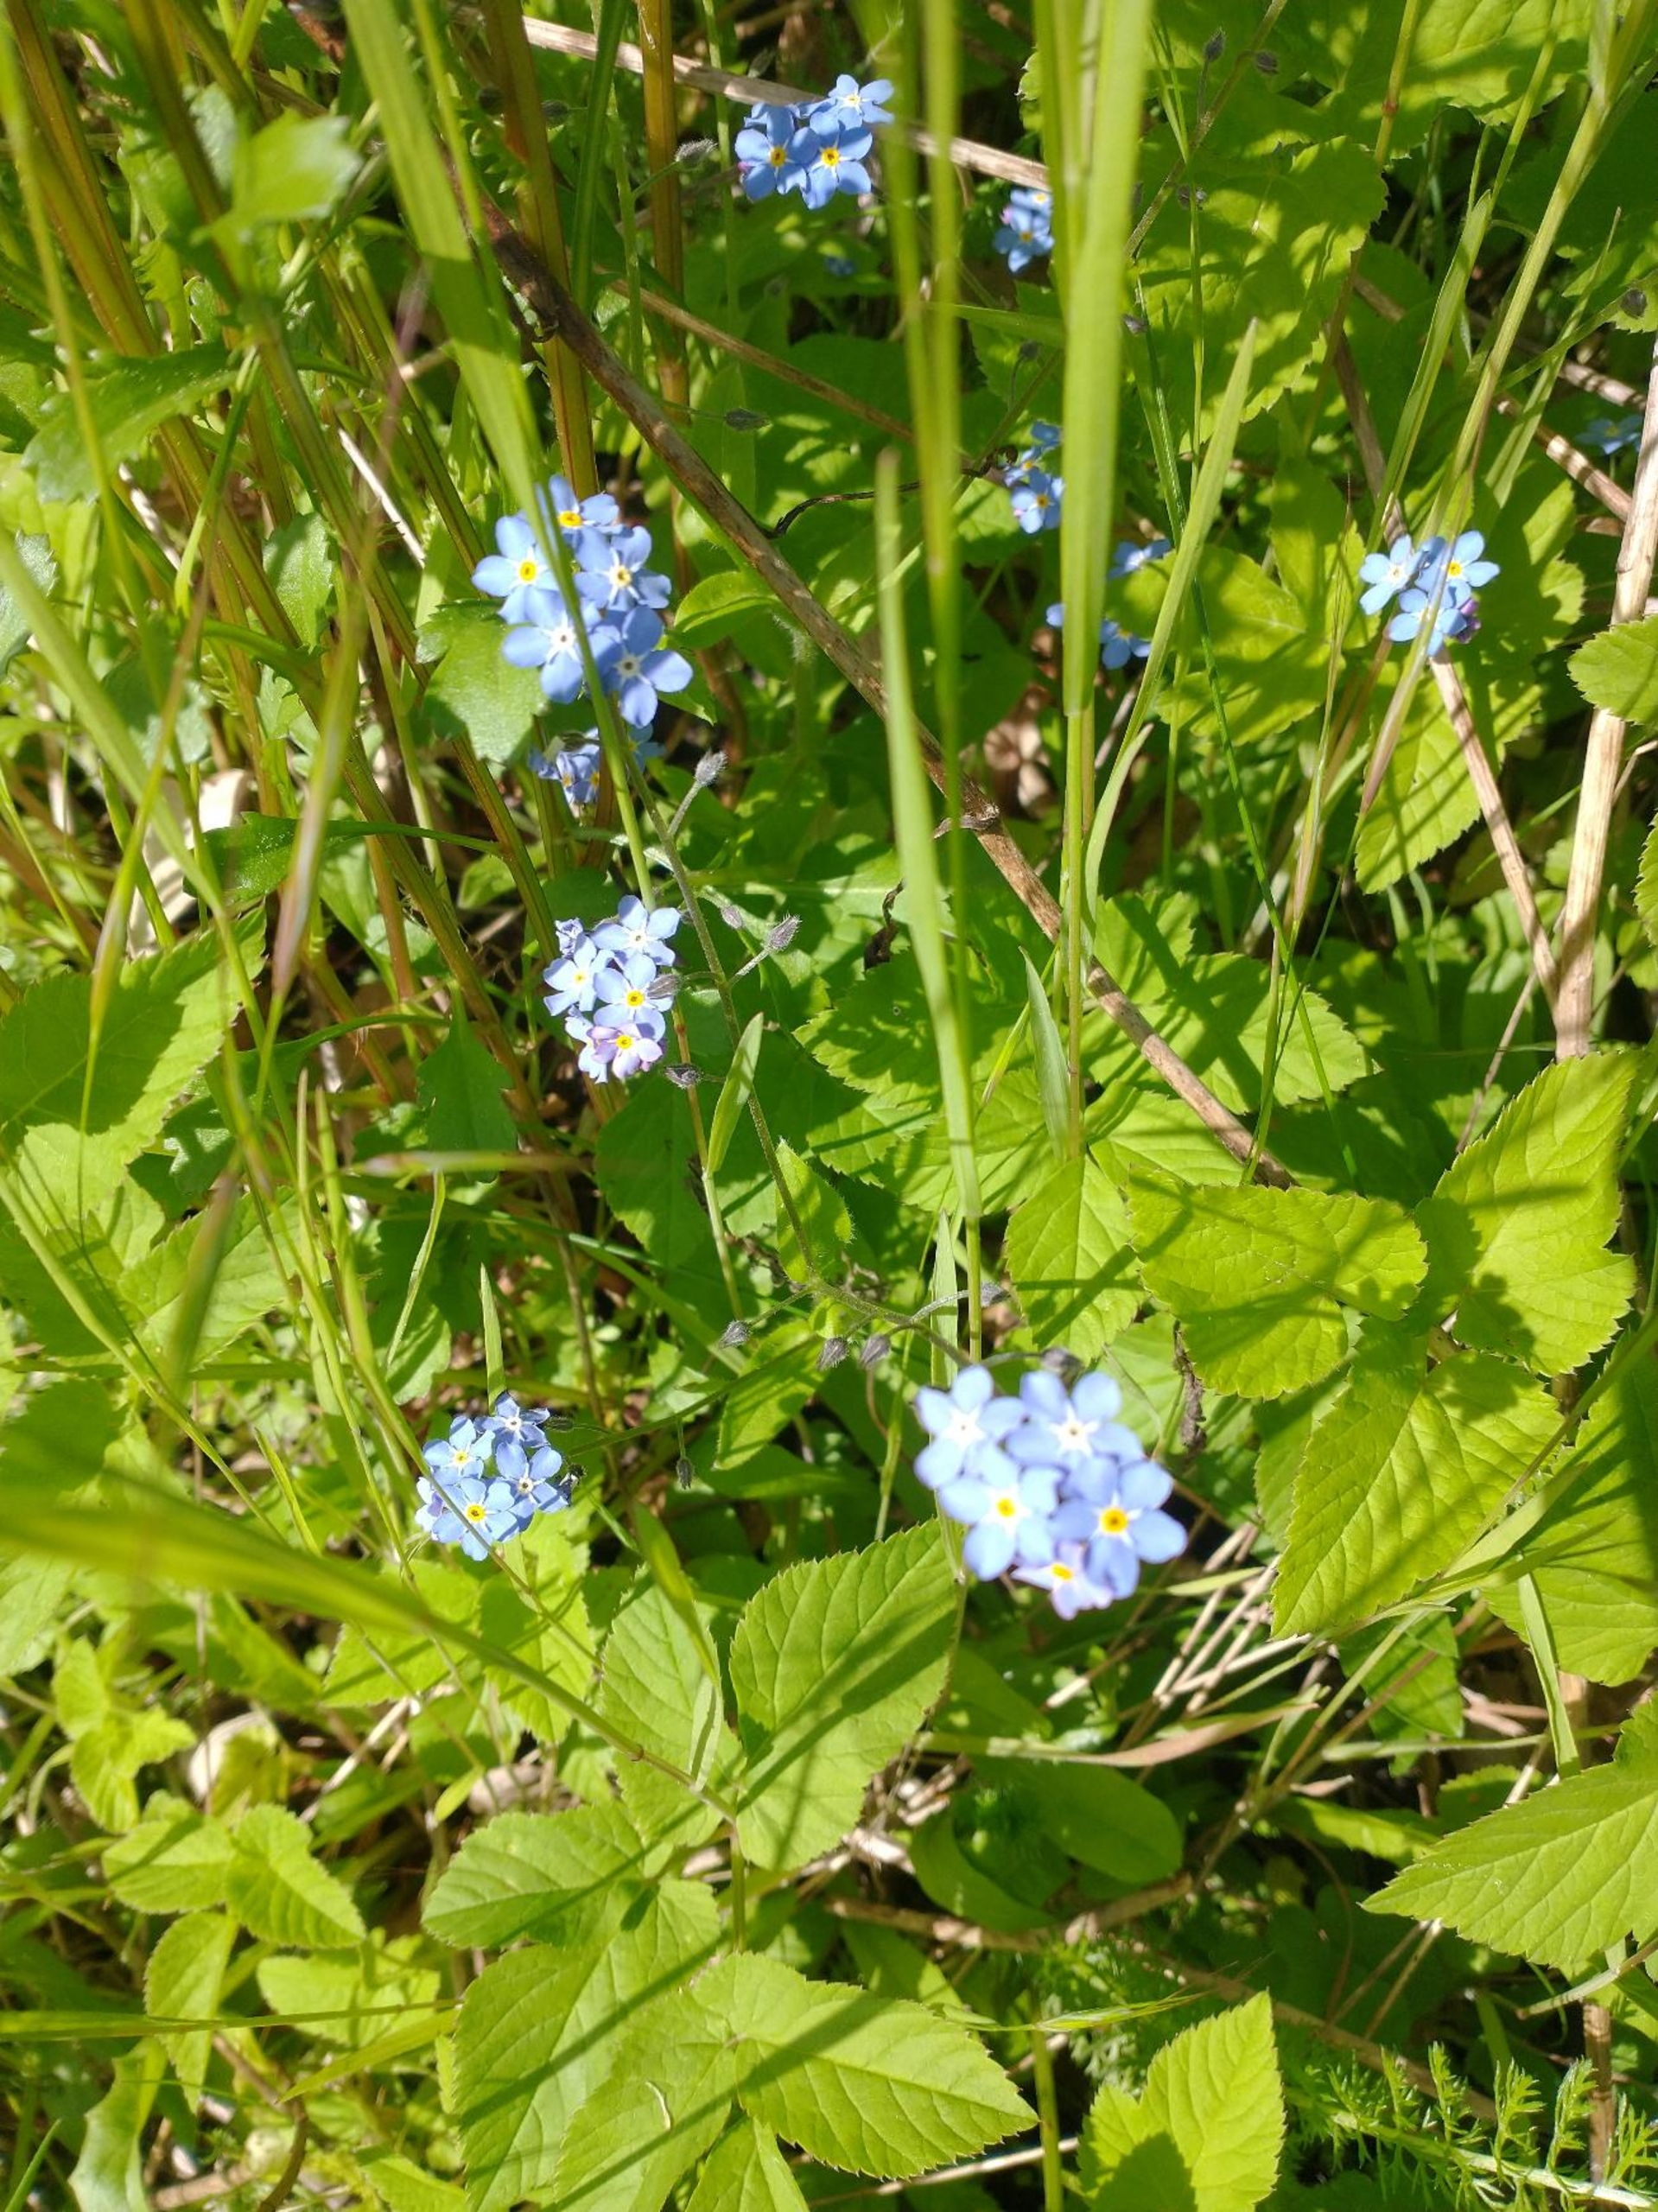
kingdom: Plantae
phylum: Tracheophyta
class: Magnoliopsida
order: Boraginales
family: Boraginaceae
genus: Myosotis
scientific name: Myosotis sylvatica
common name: Skov-forglemmigej
